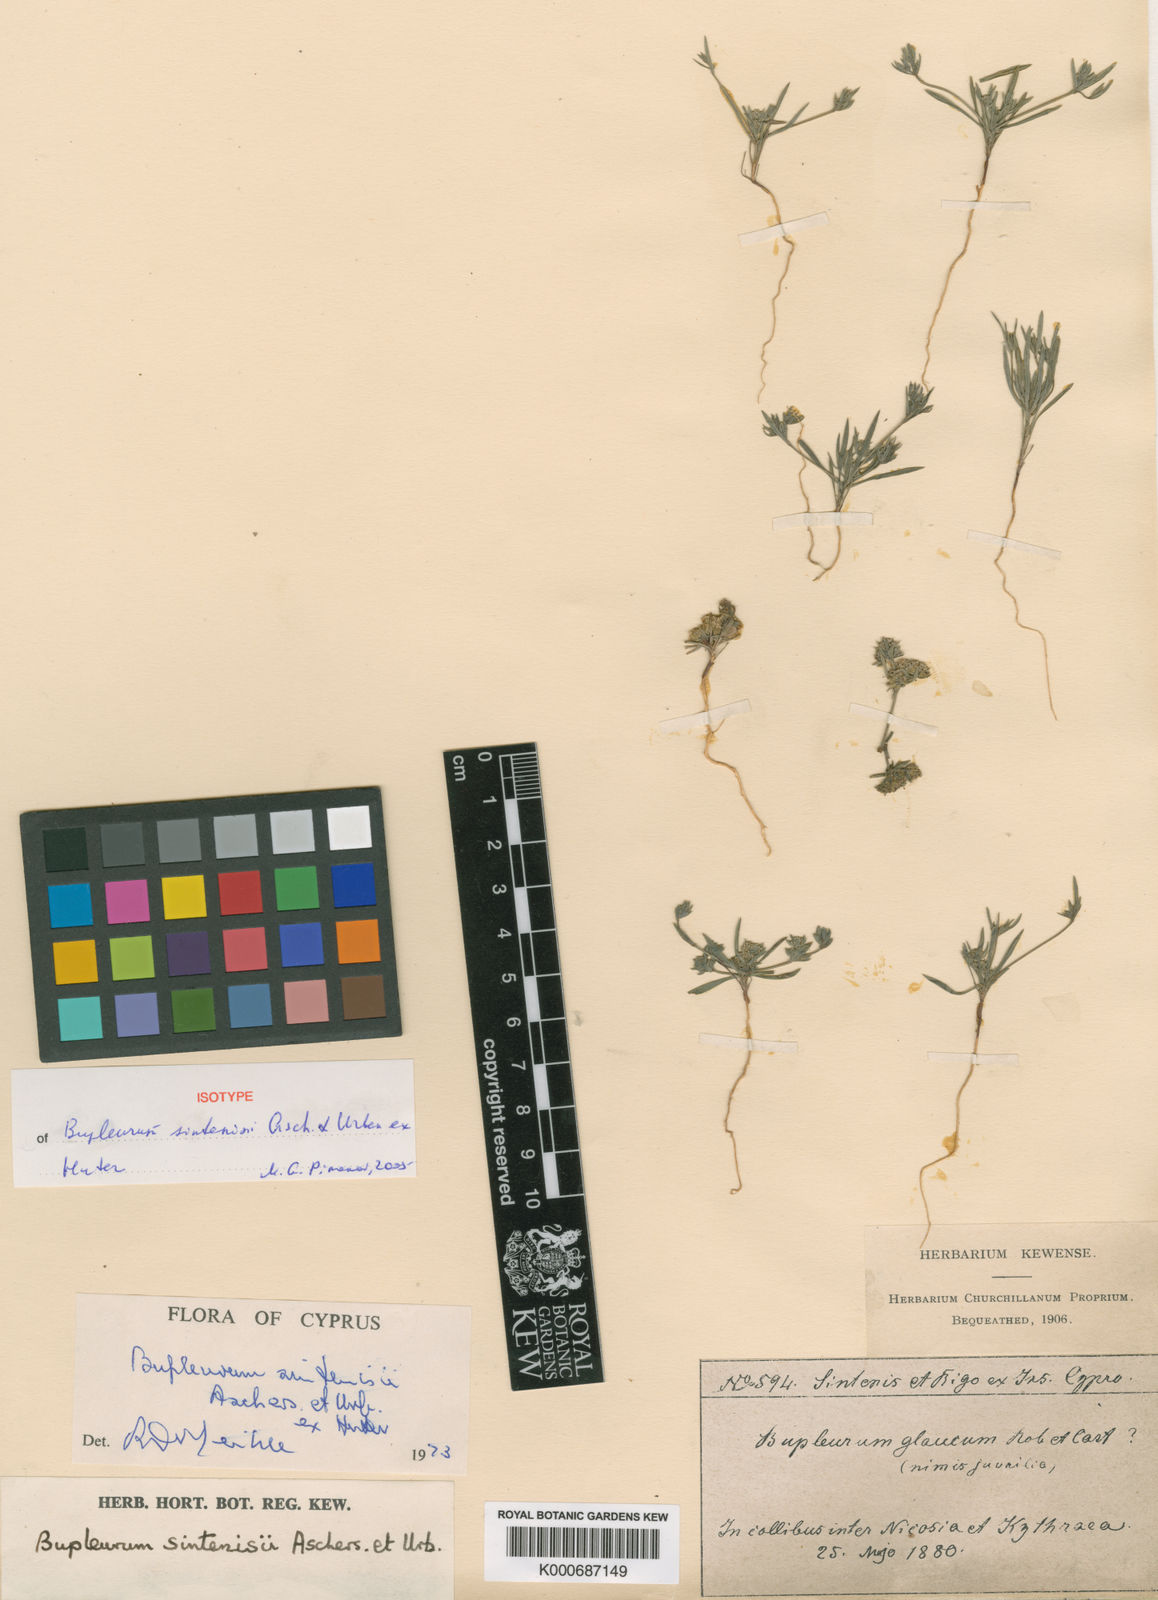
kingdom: Plantae
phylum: Tracheophyta
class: Magnoliopsida
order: Apiales
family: Apiaceae
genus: Bupleurum
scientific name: Bupleurum sintenisii
